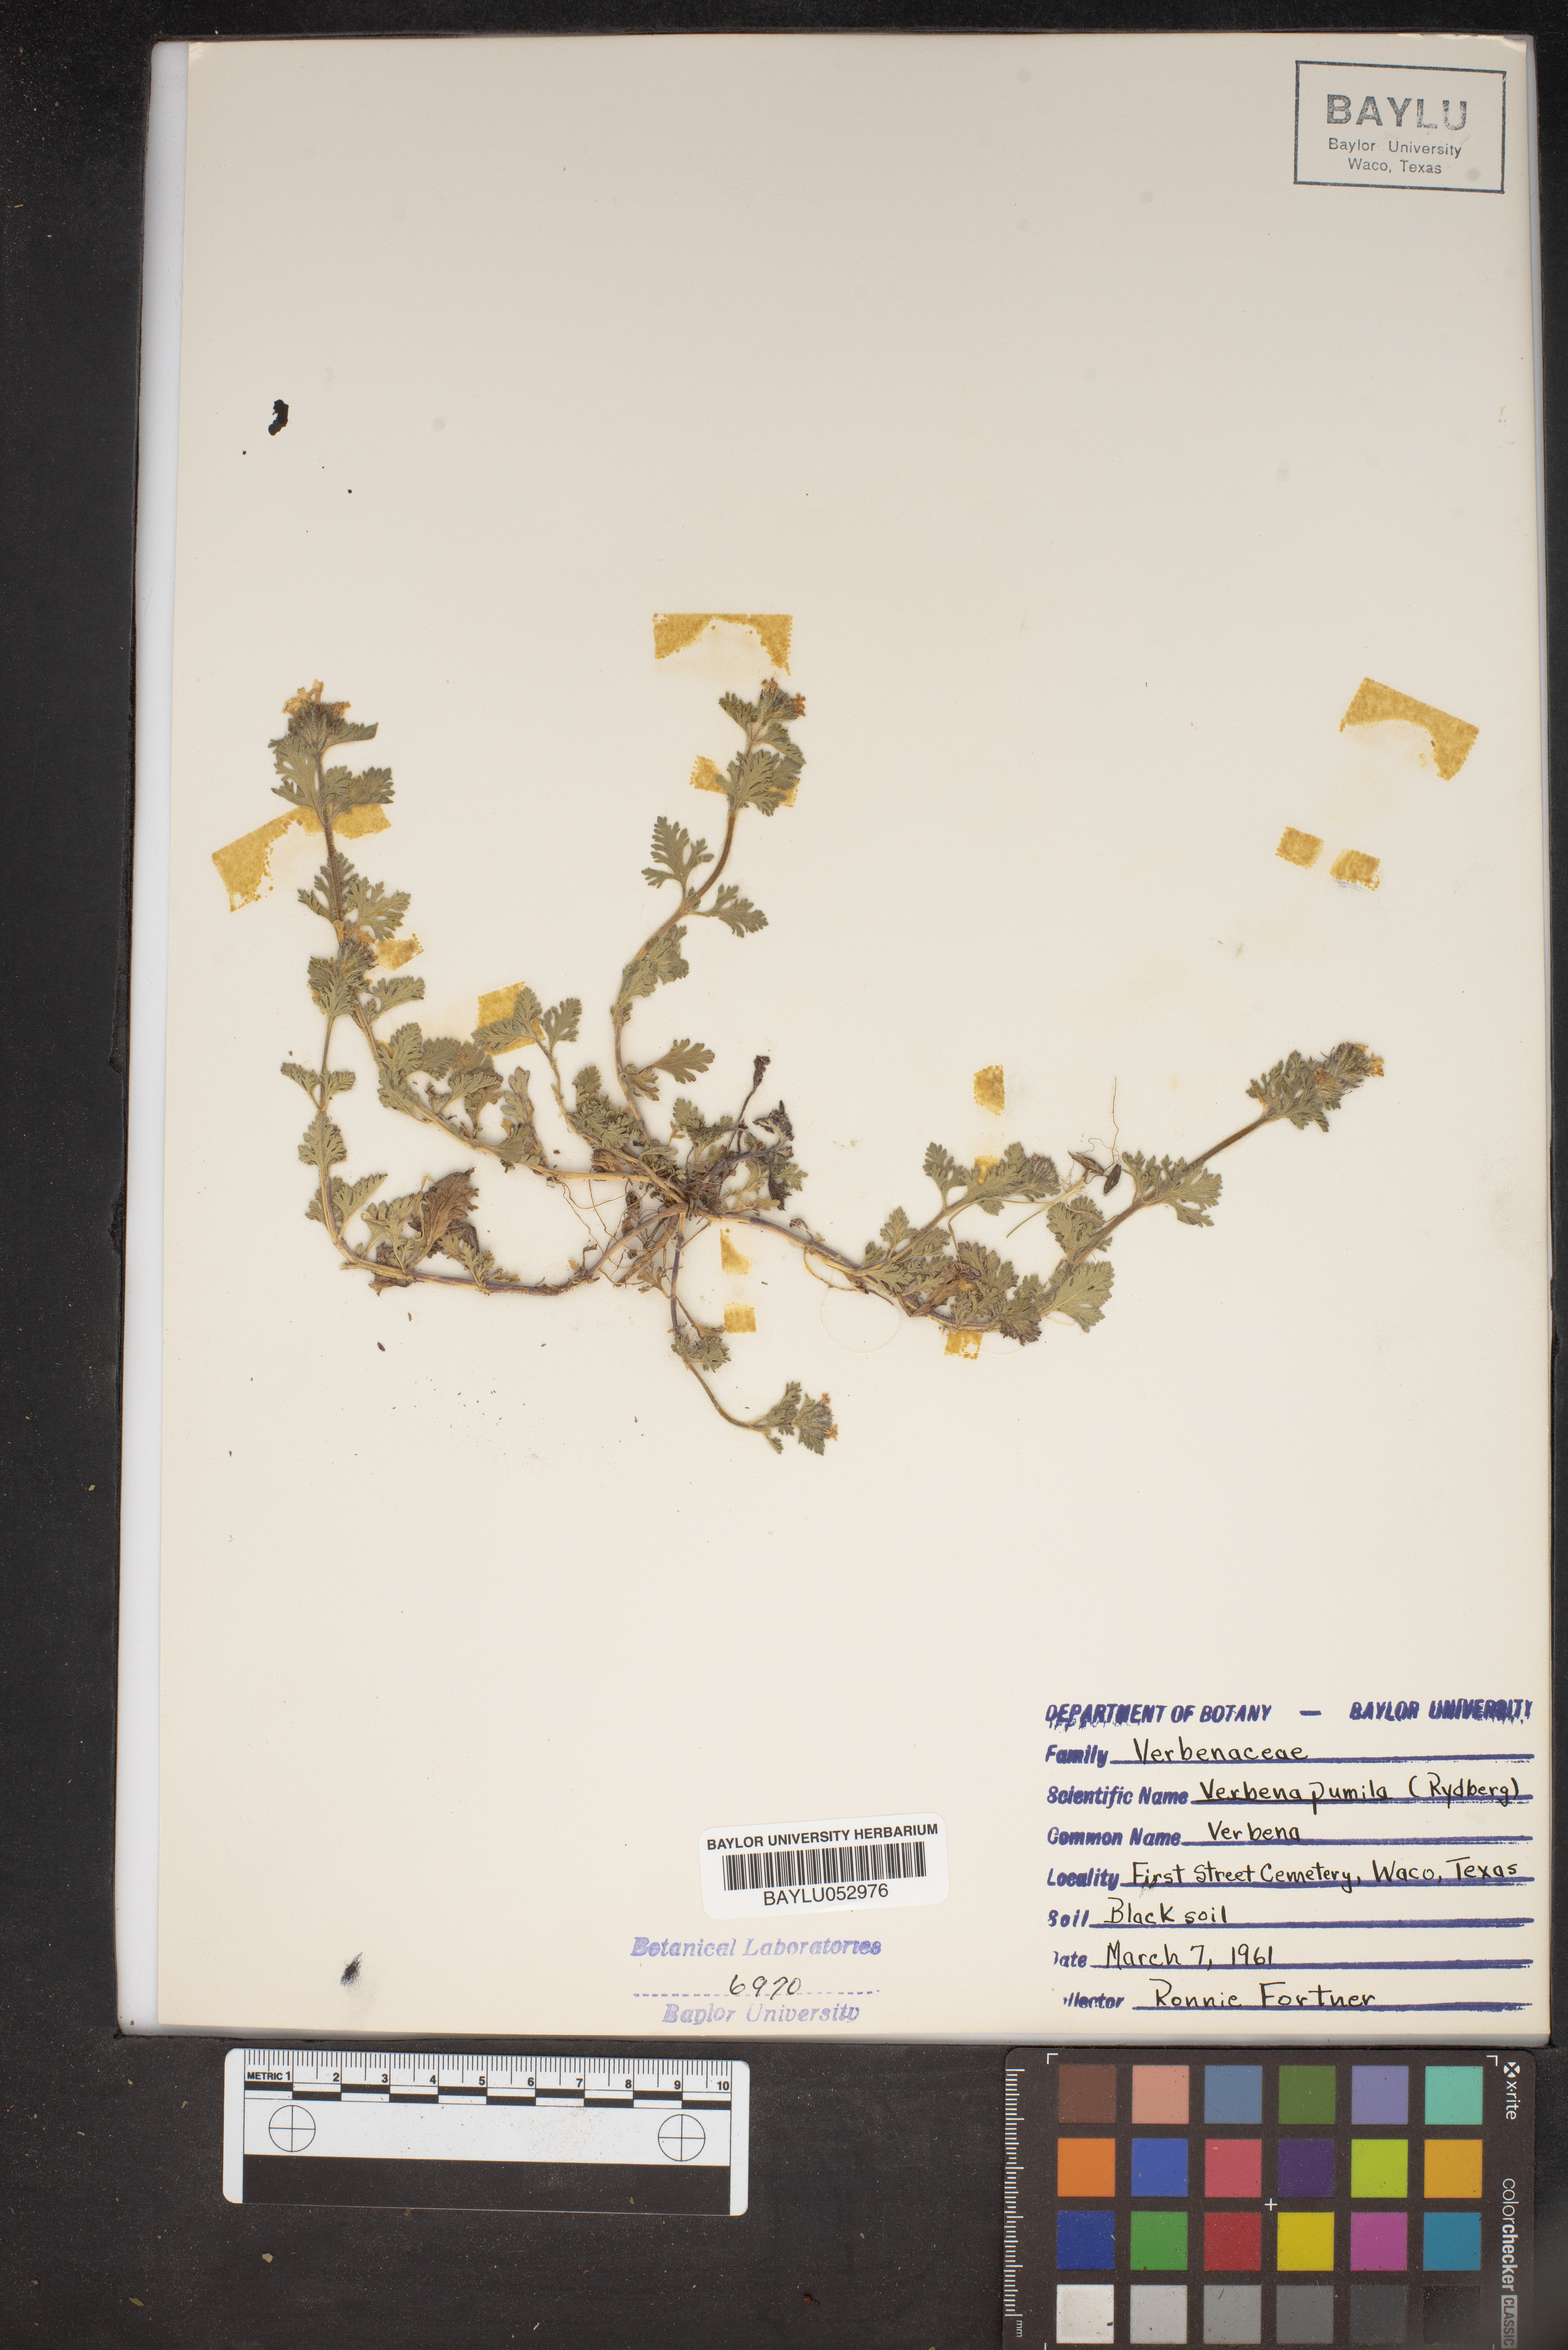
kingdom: Plantae
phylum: Tracheophyta
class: Magnoliopsida
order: Lamiales
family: Verbenaceae
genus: Verbena
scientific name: Verbena pumila
